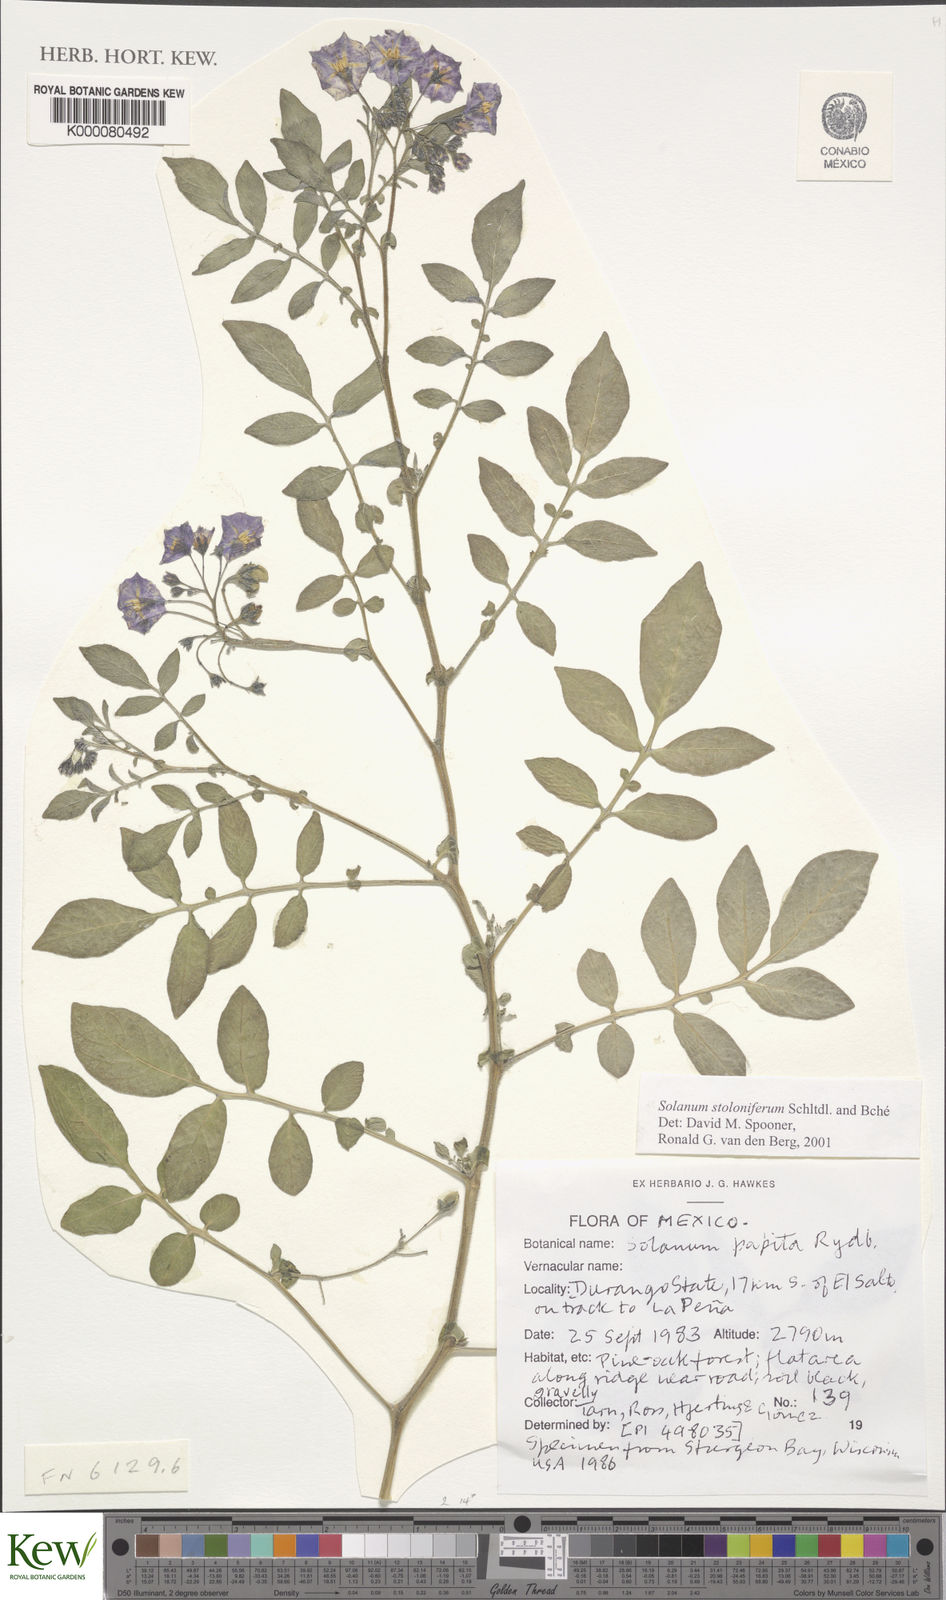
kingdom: Plantae
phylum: Tracheophyta
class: Magnoliopsida
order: Solanales
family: Solanaceae
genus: Solanum
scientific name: Solanum stoloniferum
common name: Fendler's nighshade
